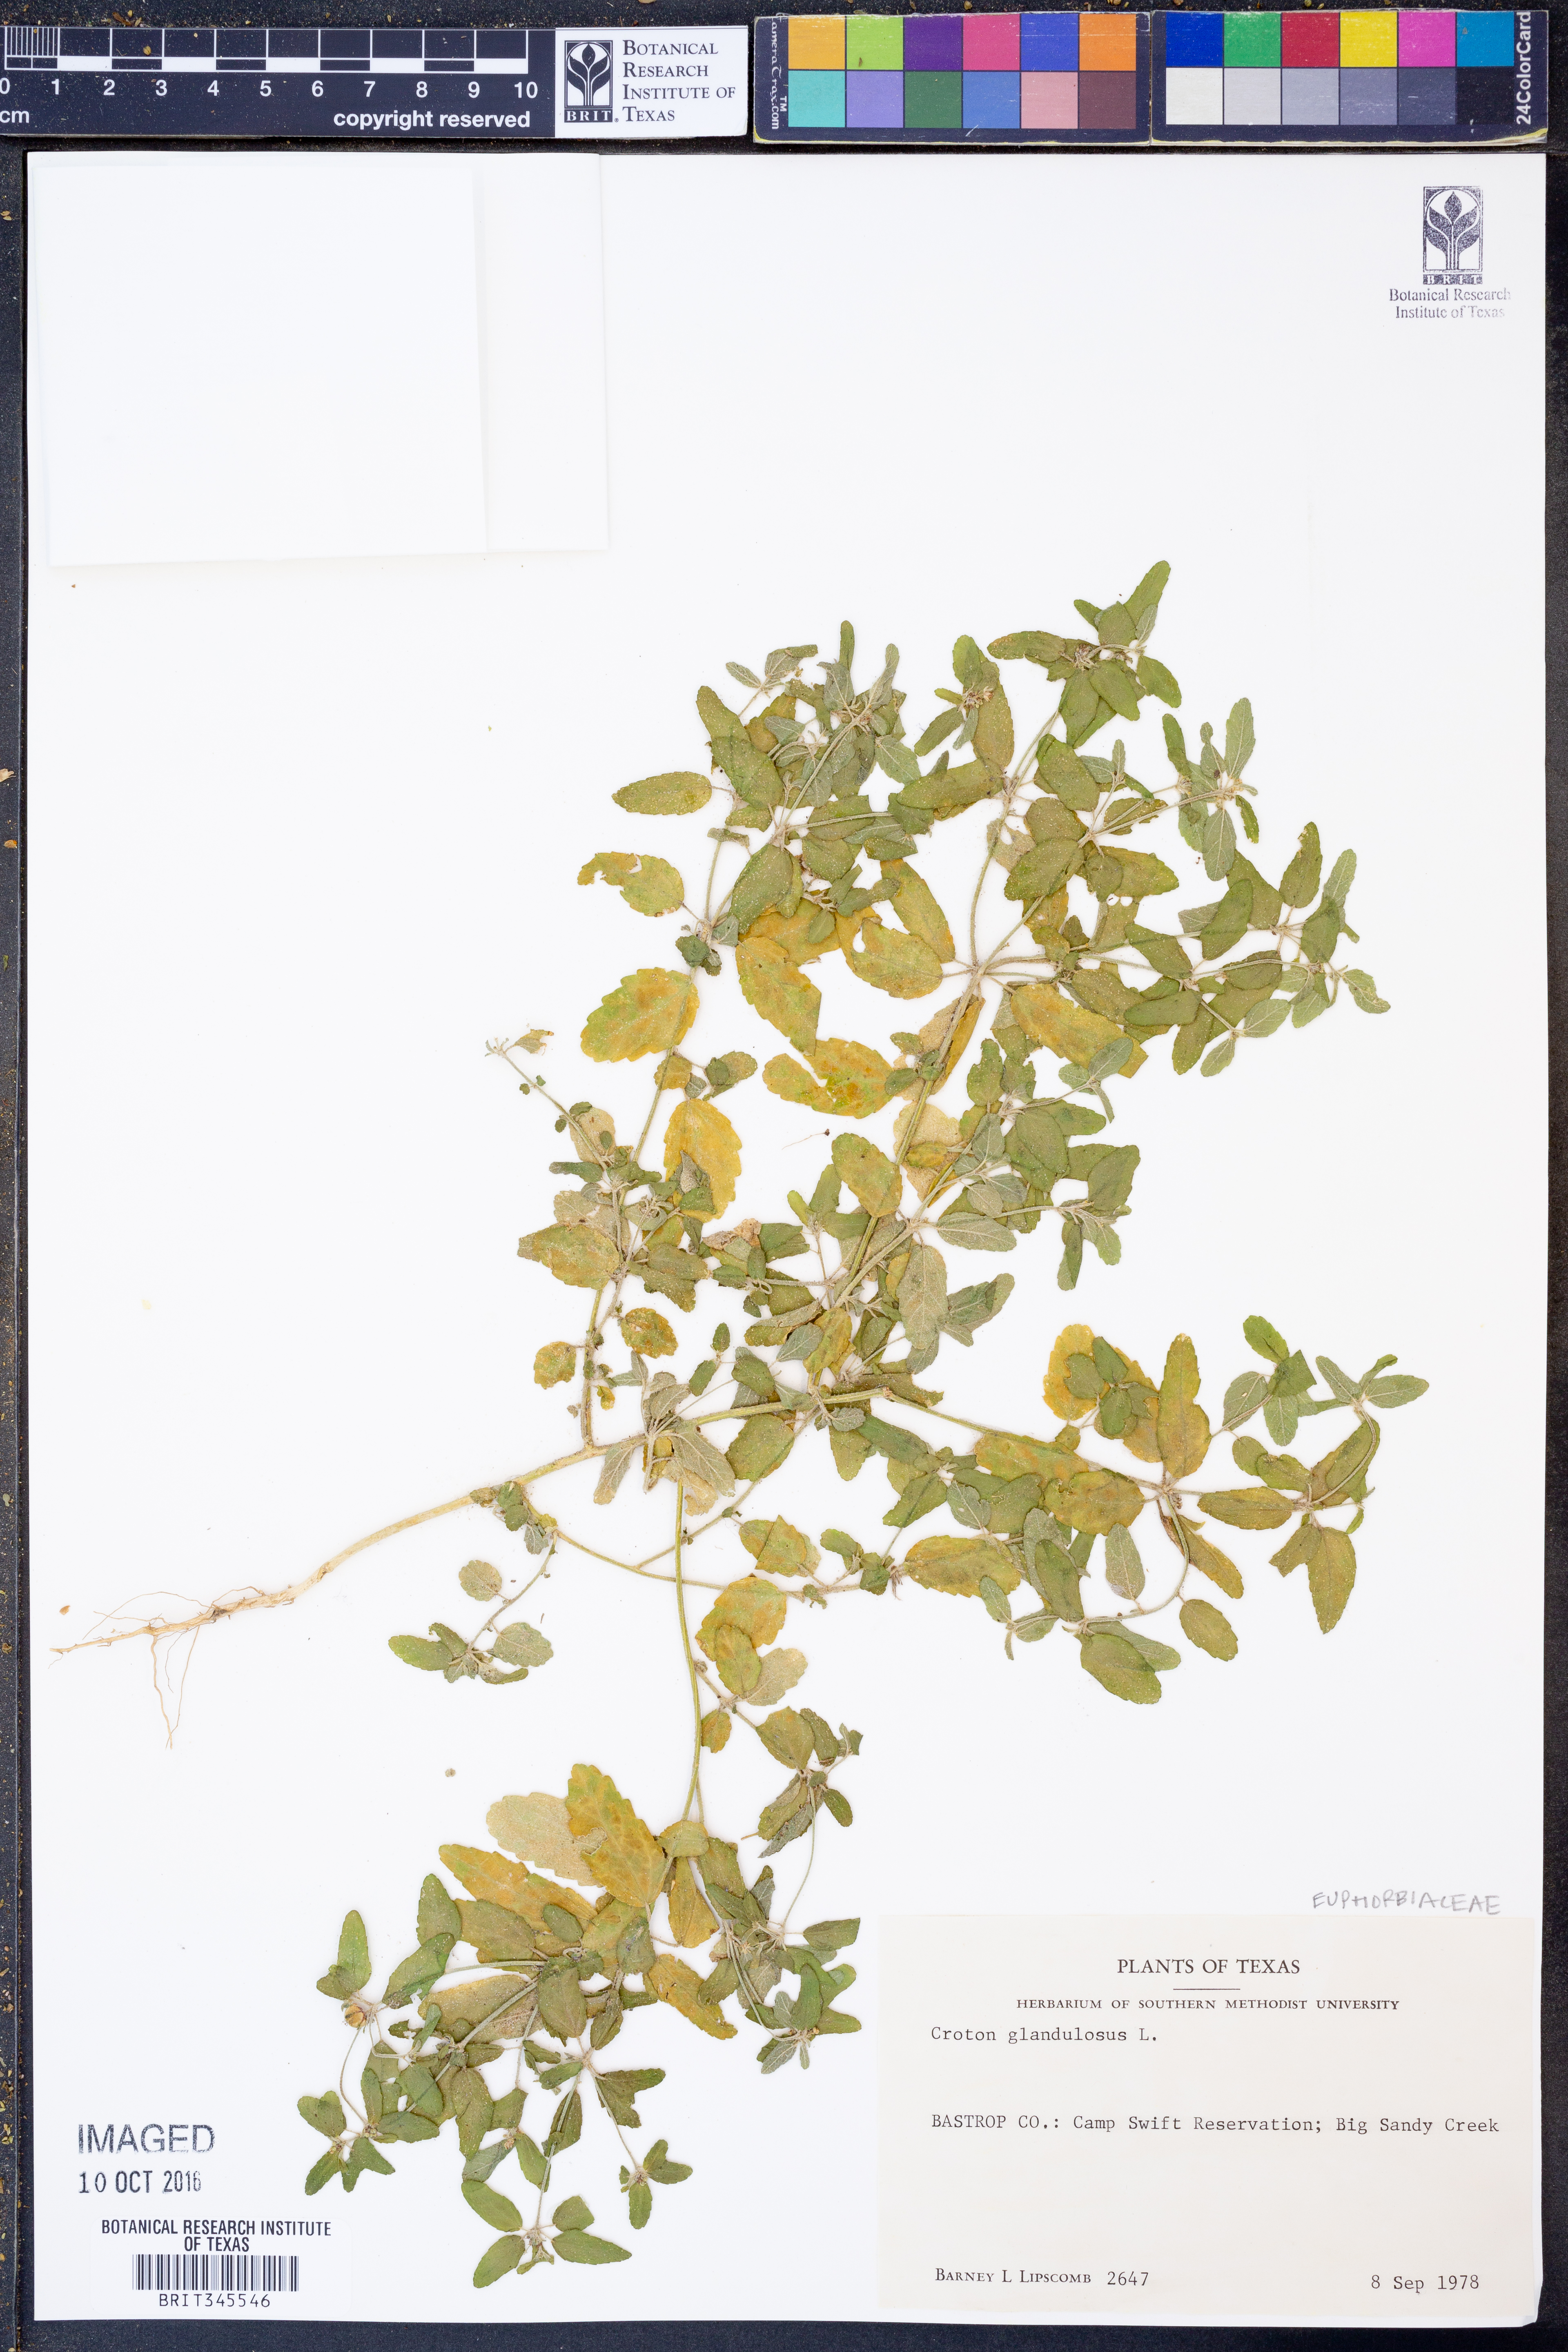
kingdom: Plantae
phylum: Tracheophyta
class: Magnoliopsida
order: Malpighiales
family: Euphorbiaceae
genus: Croton
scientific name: Croton glandulosus
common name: Tropic croton
